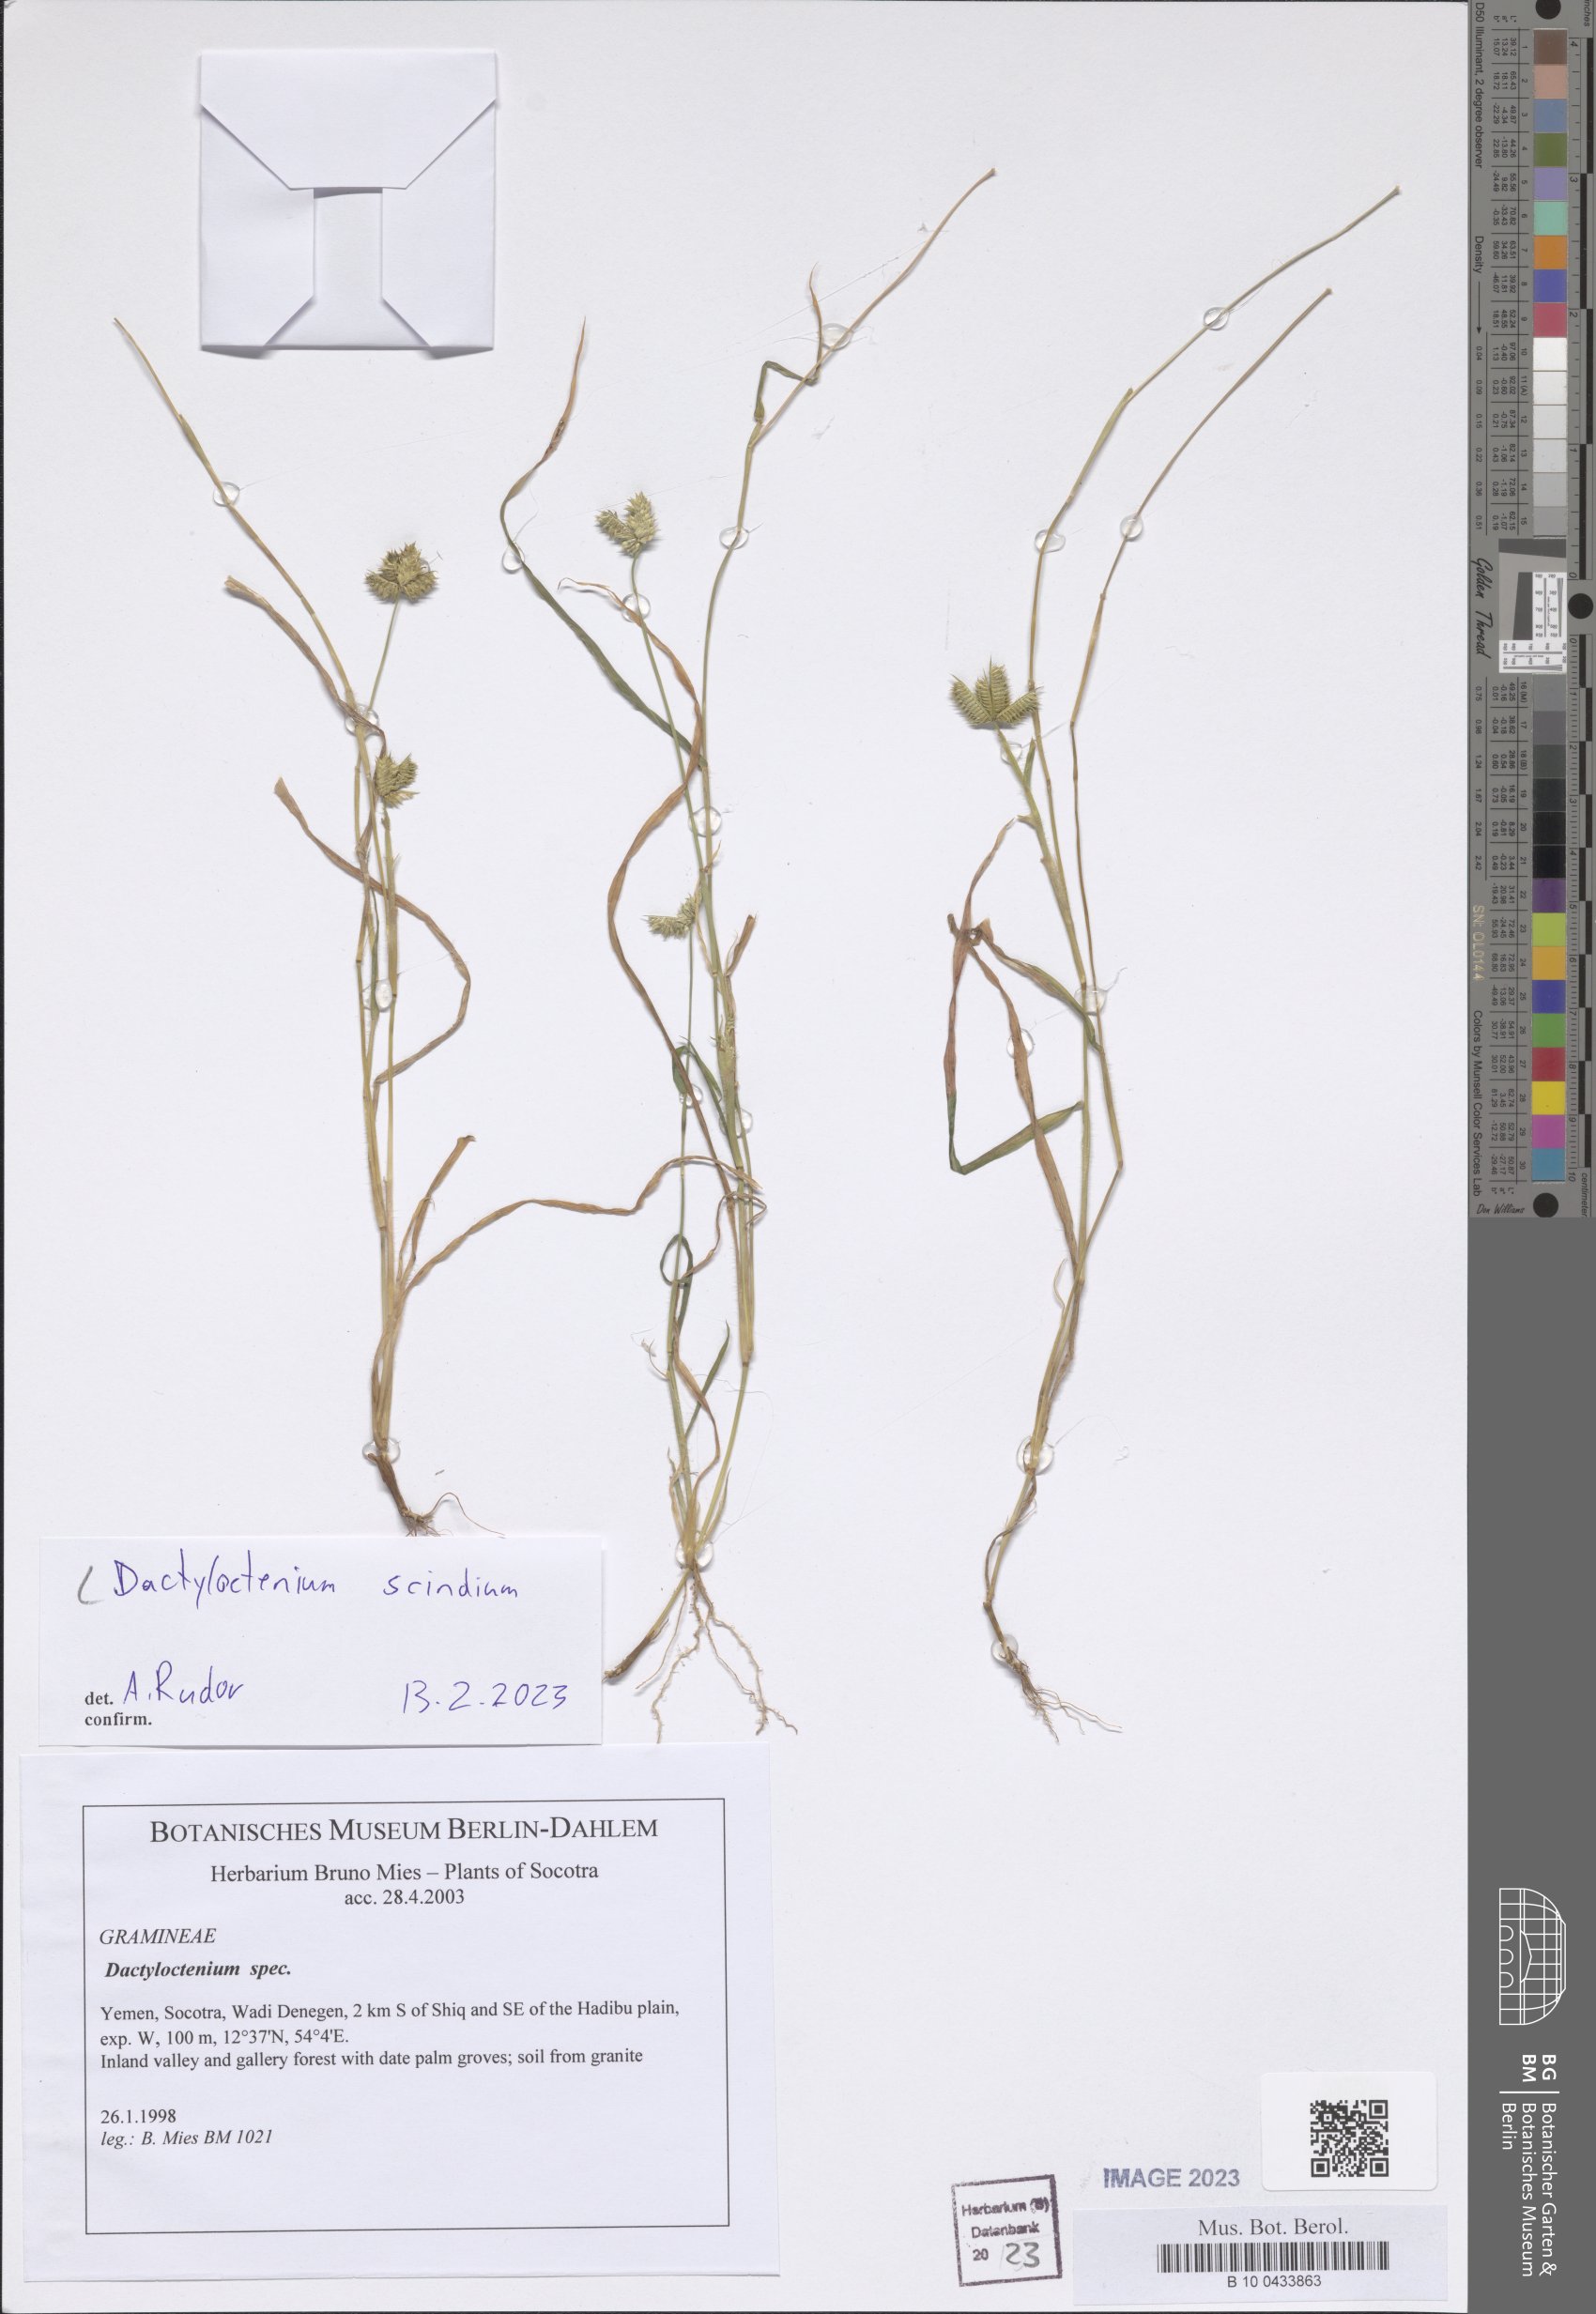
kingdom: Plantae
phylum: Tracheophyta
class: Liliopsida
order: Poales
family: Poaceae
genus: Dactyloctenium
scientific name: Dactyloctenium scindicum
